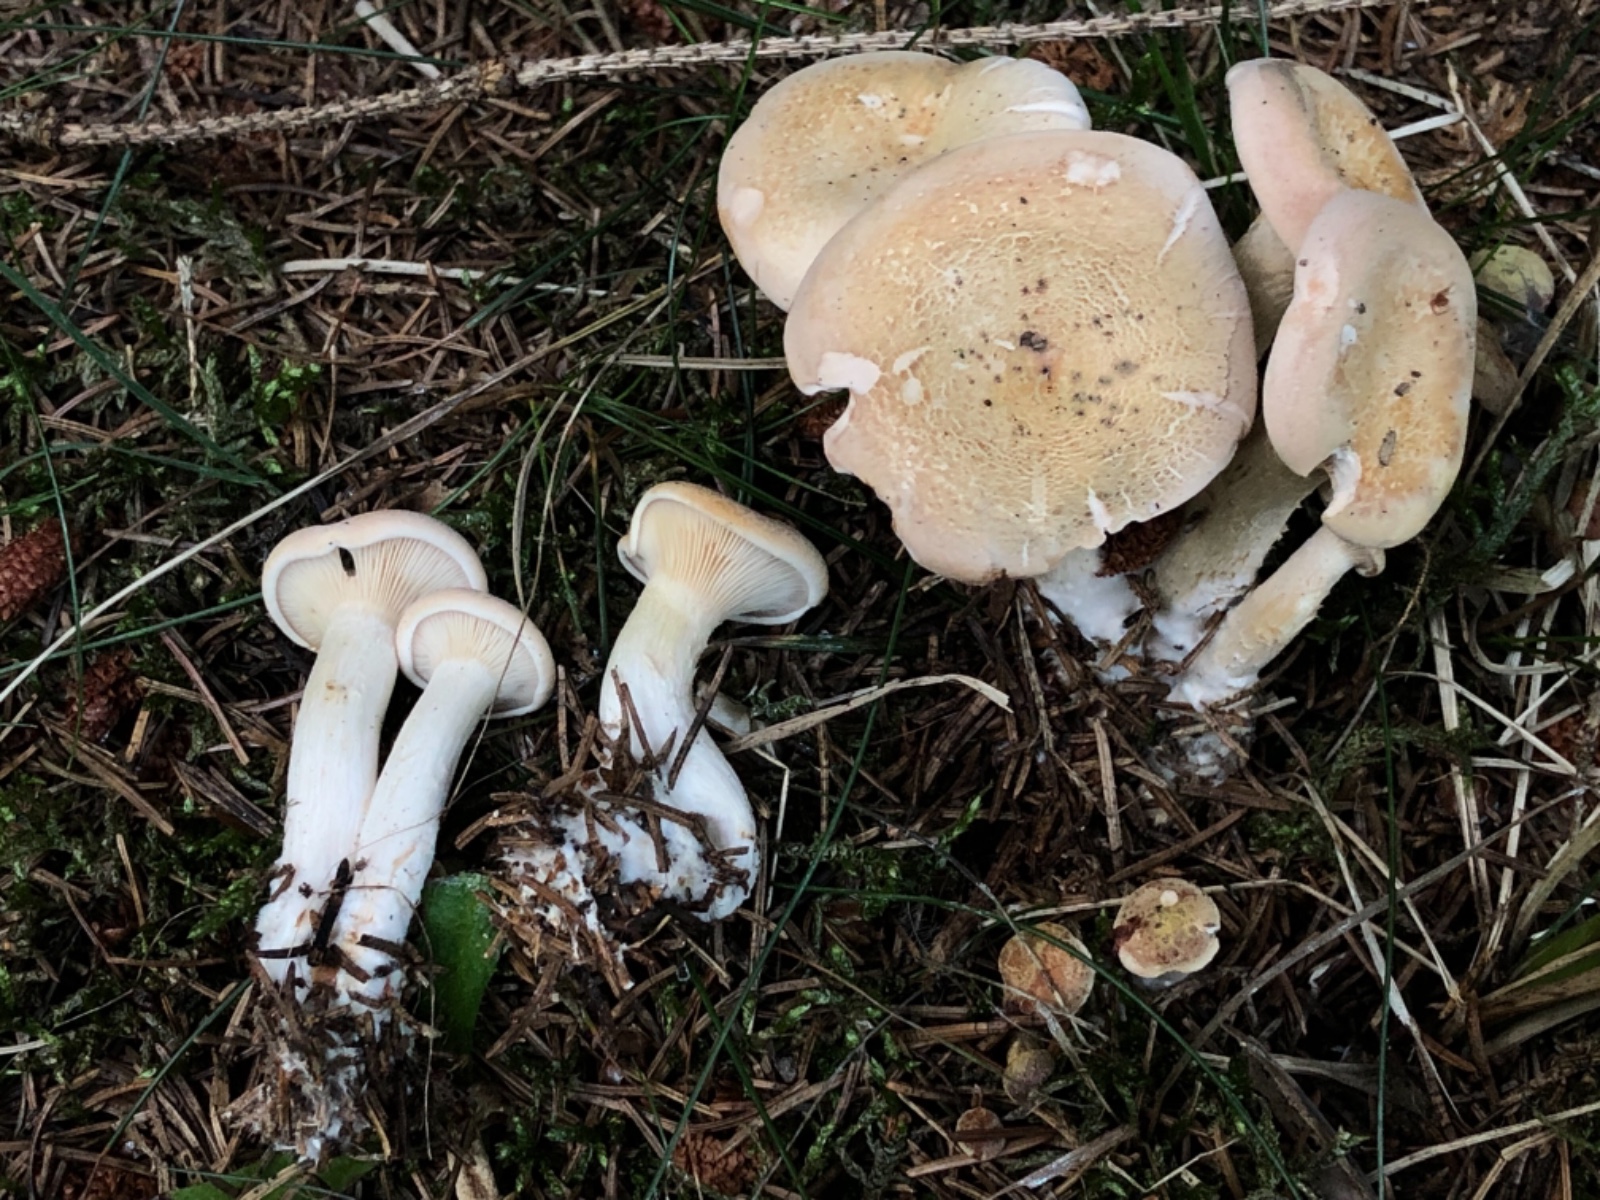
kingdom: Fungi
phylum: Basidiomycota
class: Agaricomycetes
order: Agaricales
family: Tricholomataceae
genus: Paralepista
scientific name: Paralepista gilva
